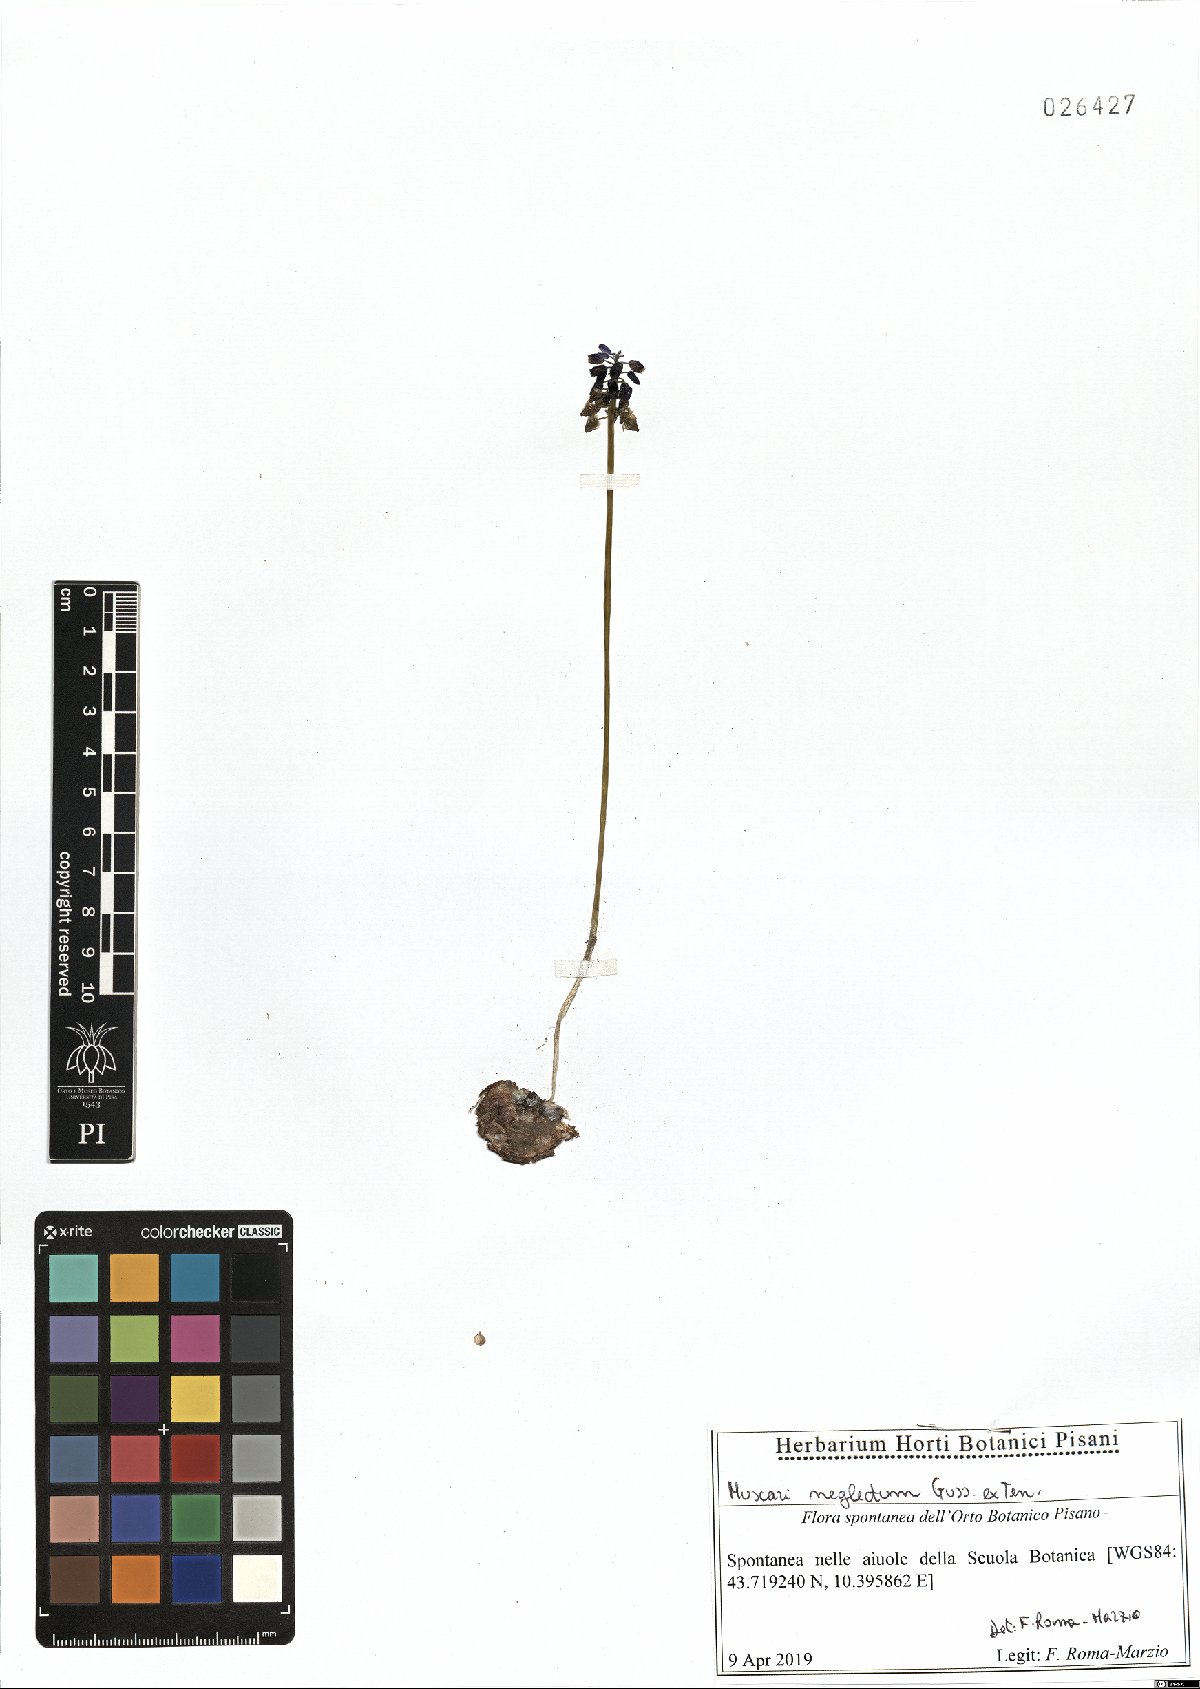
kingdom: Plantae
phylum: Tracheophyta
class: Liliopsida
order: Asparagales
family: Asparagaceae
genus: Muscari
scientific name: Muscari neglectum
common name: Grape-hyacinth
